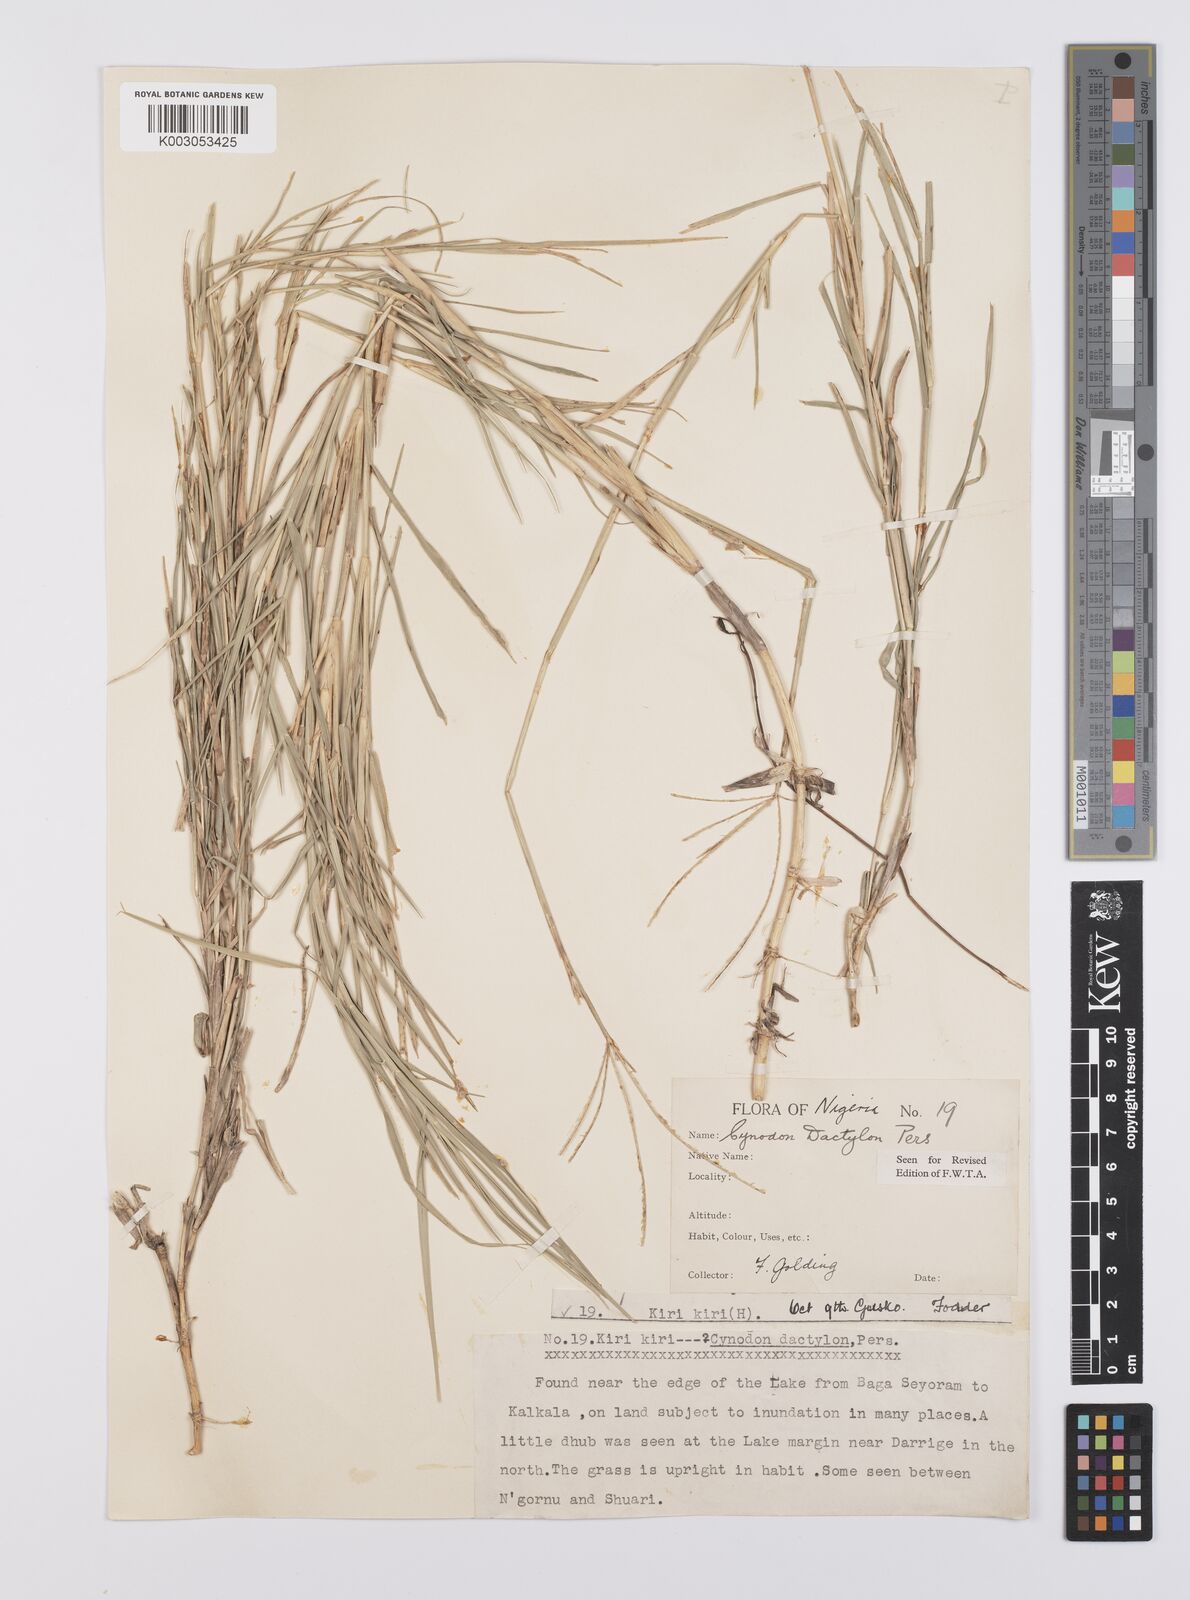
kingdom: Plantae
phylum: Tracheophyta
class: Liliopsida
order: Poales
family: Poaceae
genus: Cynodon
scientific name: Cynodon dactylon
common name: Bermuda grass
